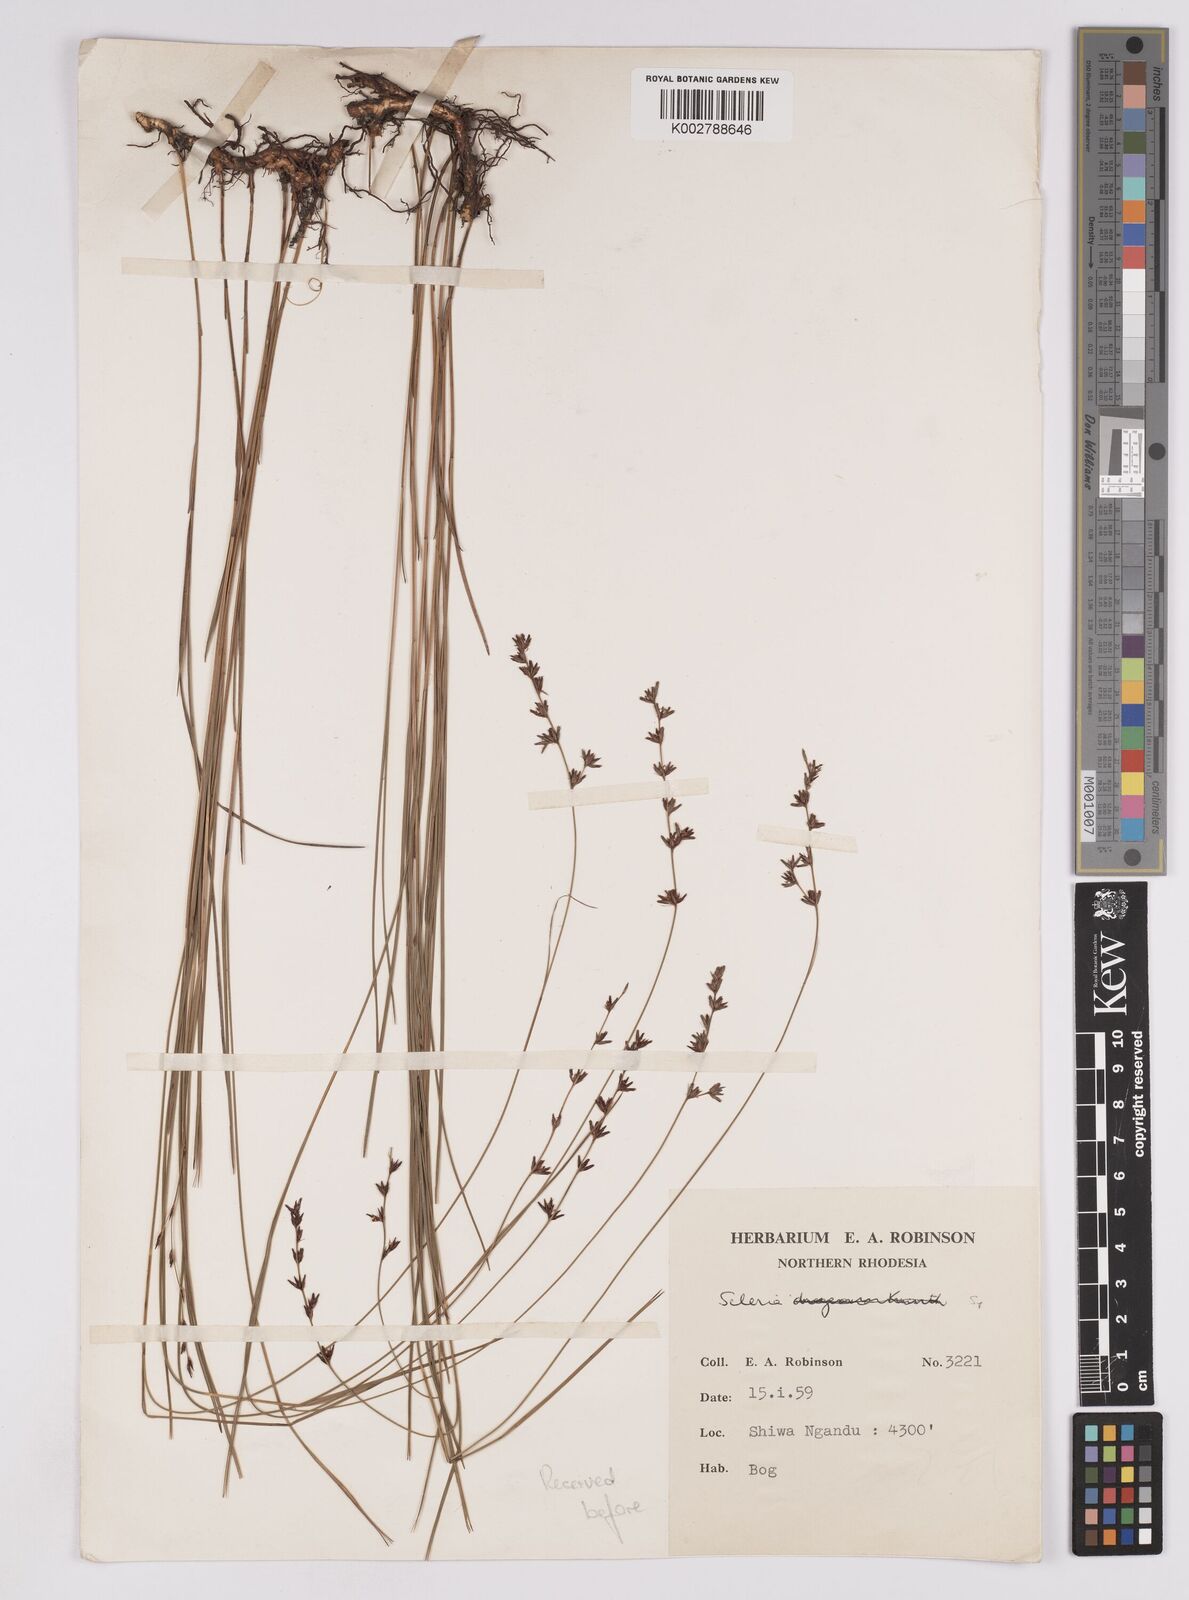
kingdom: Plantae
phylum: Tracheophyta
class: Liliopsida
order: Poales
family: Cyperaceae
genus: Scleria
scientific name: Scleria
